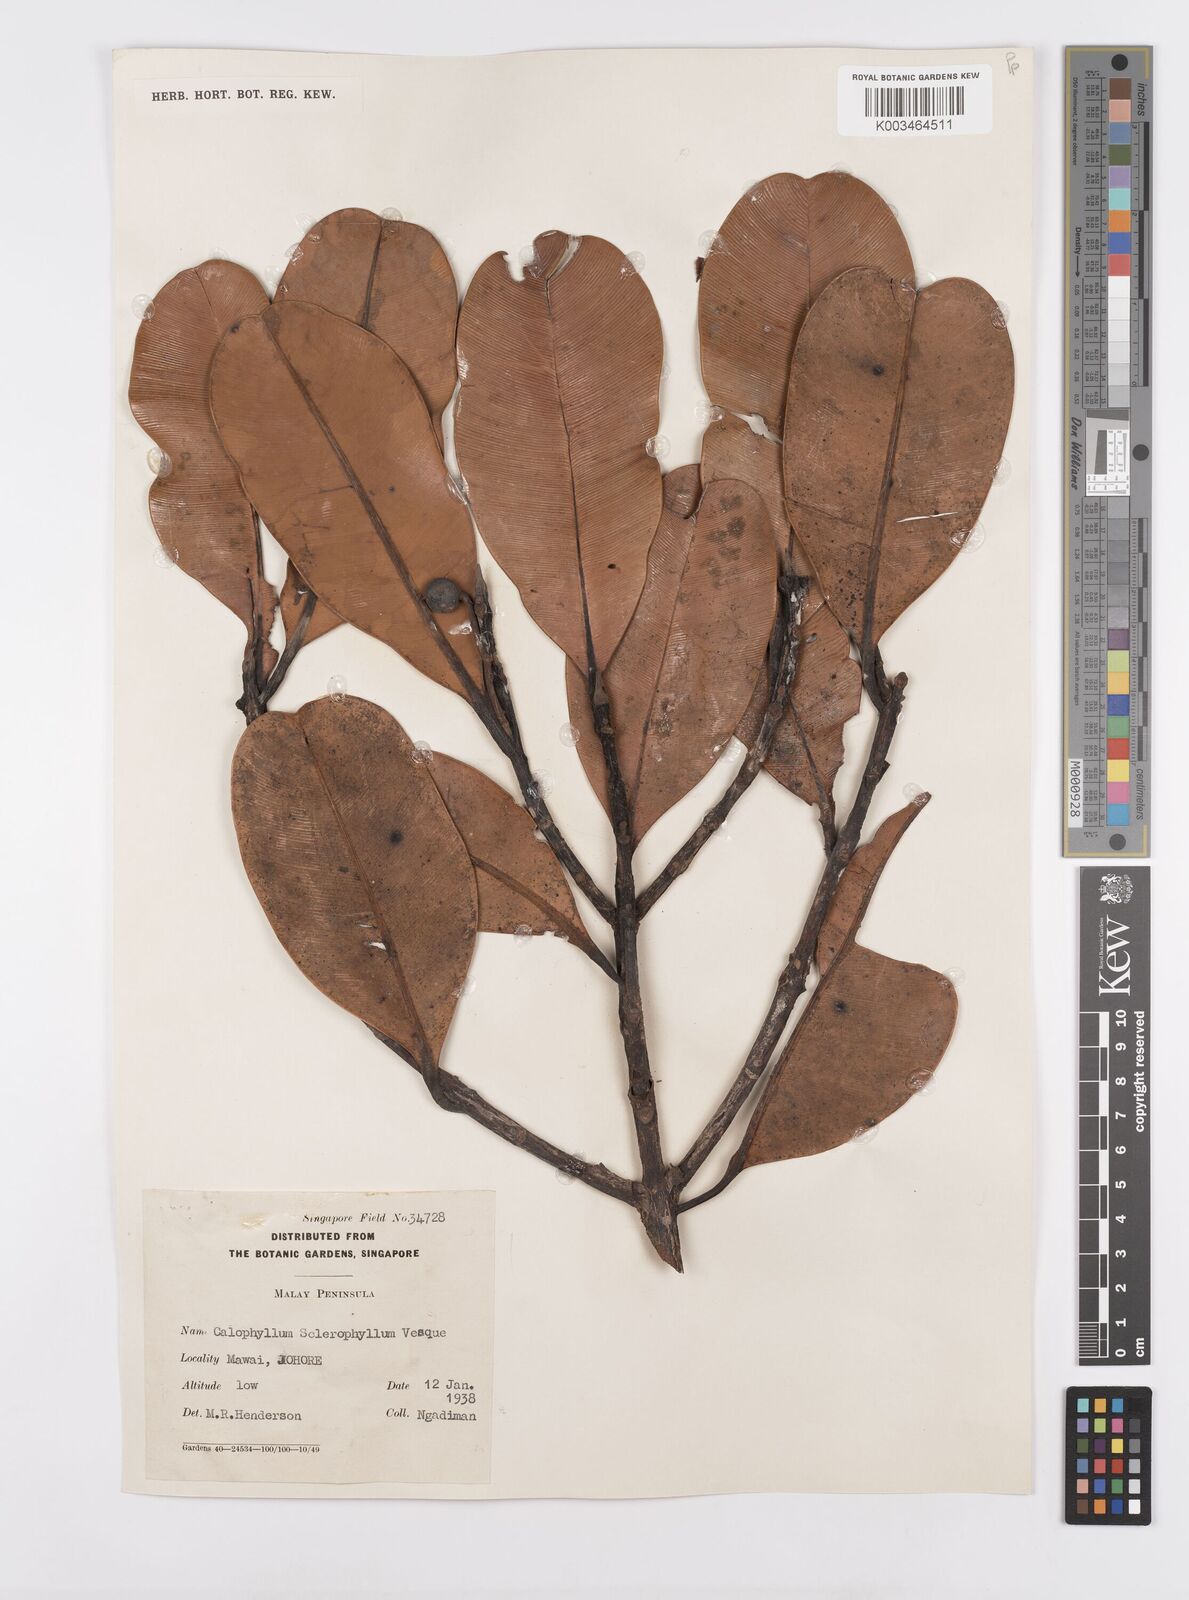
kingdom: Plantae
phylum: Tracheophyta
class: Magnoliopsida
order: Malpighiales
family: Calophyllaceae
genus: Calophyllum
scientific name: Calophyllum sclerophyllum
